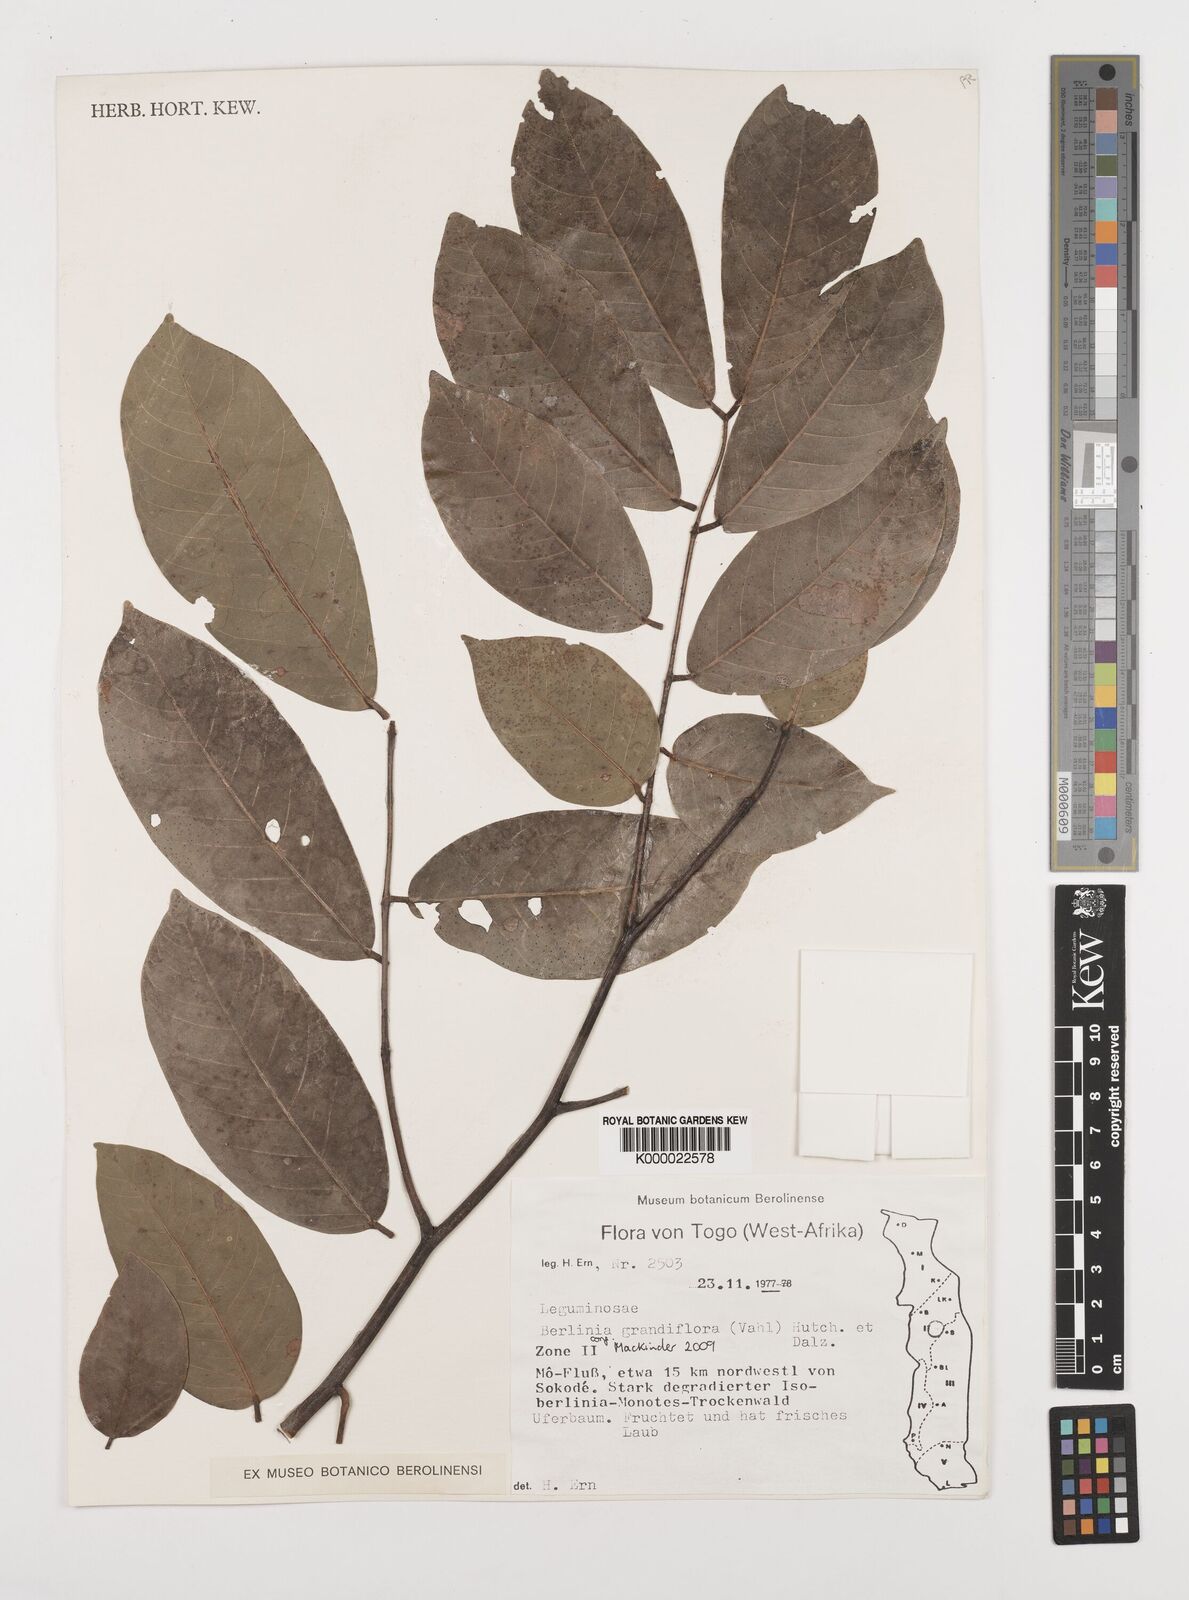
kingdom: Plantae
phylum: Tracheophyta
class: Magnoliopsida
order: Fabales
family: Fabaceae
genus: Berlinia
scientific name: Berlinia grandiflora
